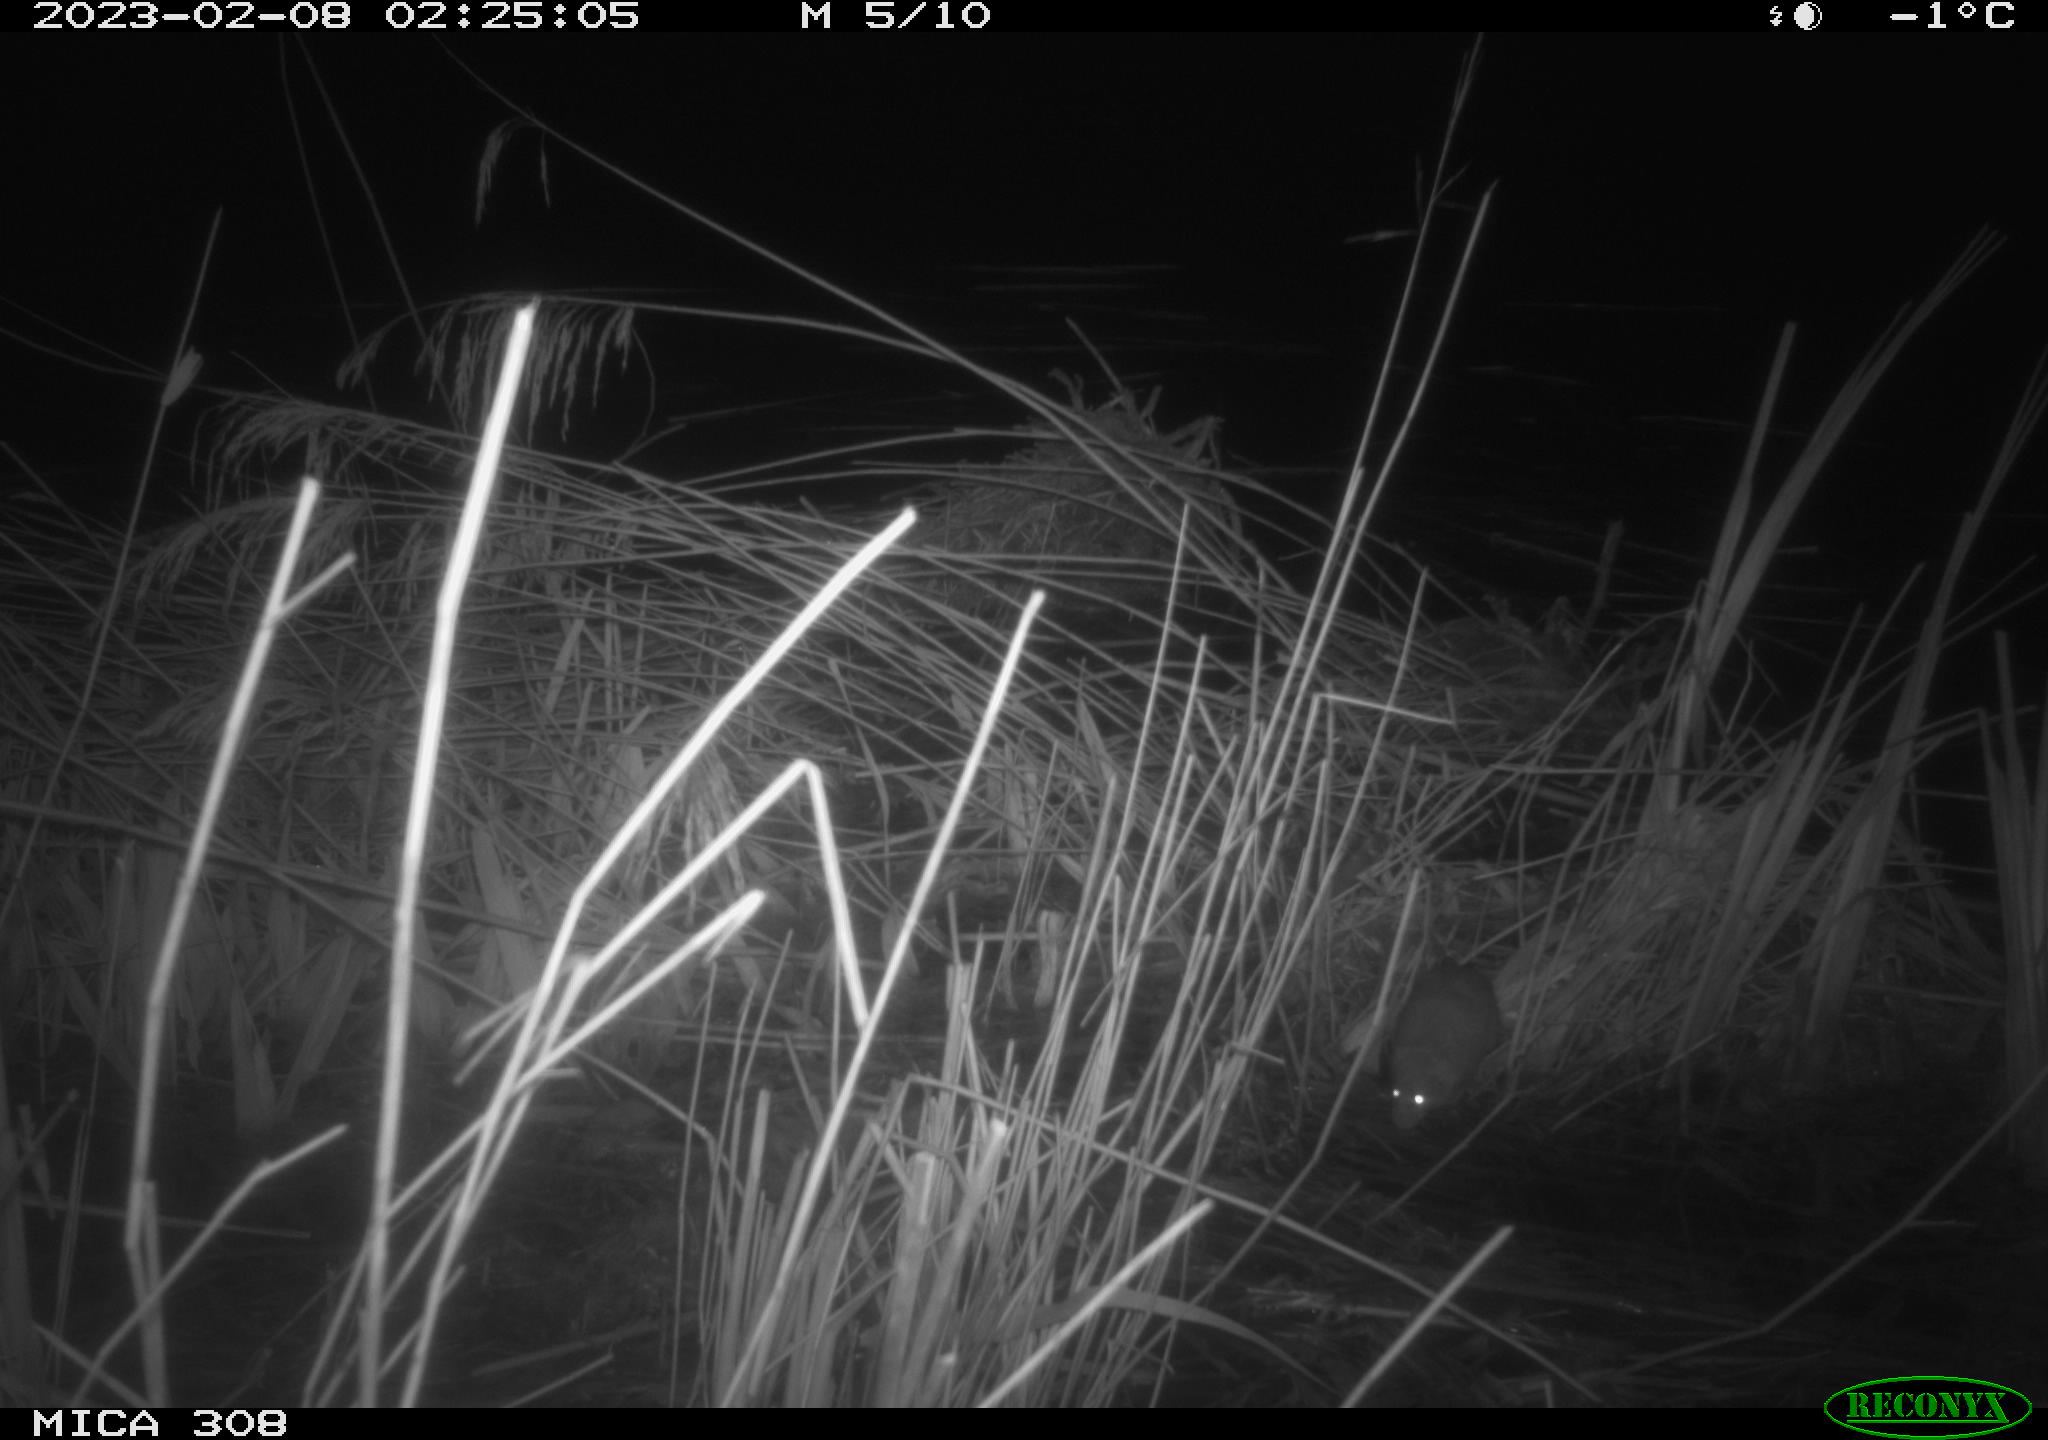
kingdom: Animalia
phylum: Chordata
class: Mammalia
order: Rodentia
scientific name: Rodentia
